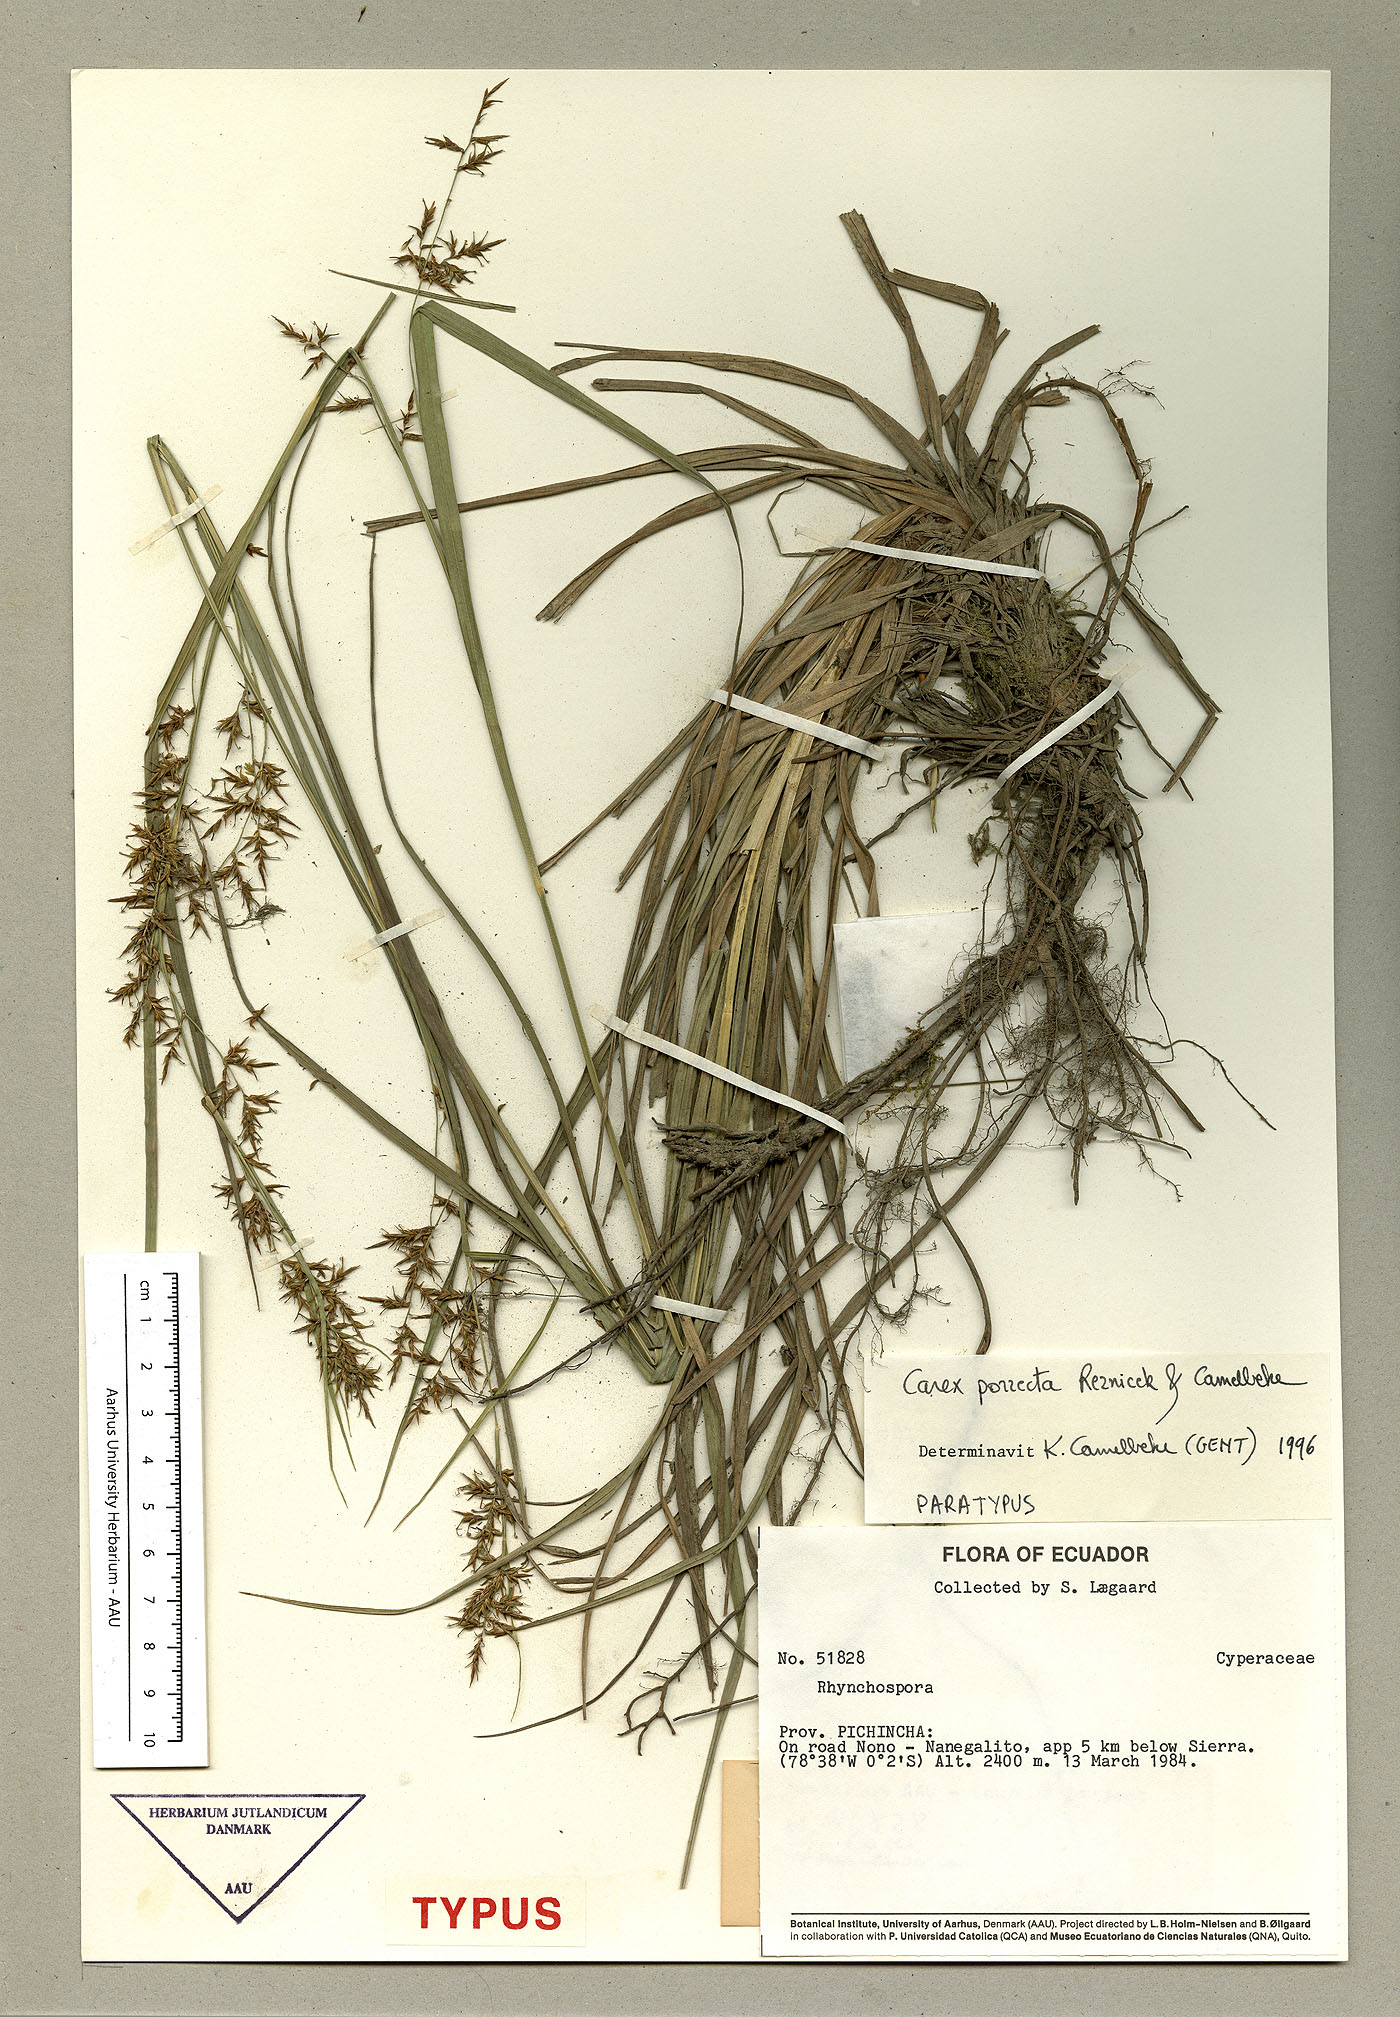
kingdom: Plantae
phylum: Tracheophyta
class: Liliopsida
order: Poales
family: Cyperaceae
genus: Carex
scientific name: Carex porrecta
